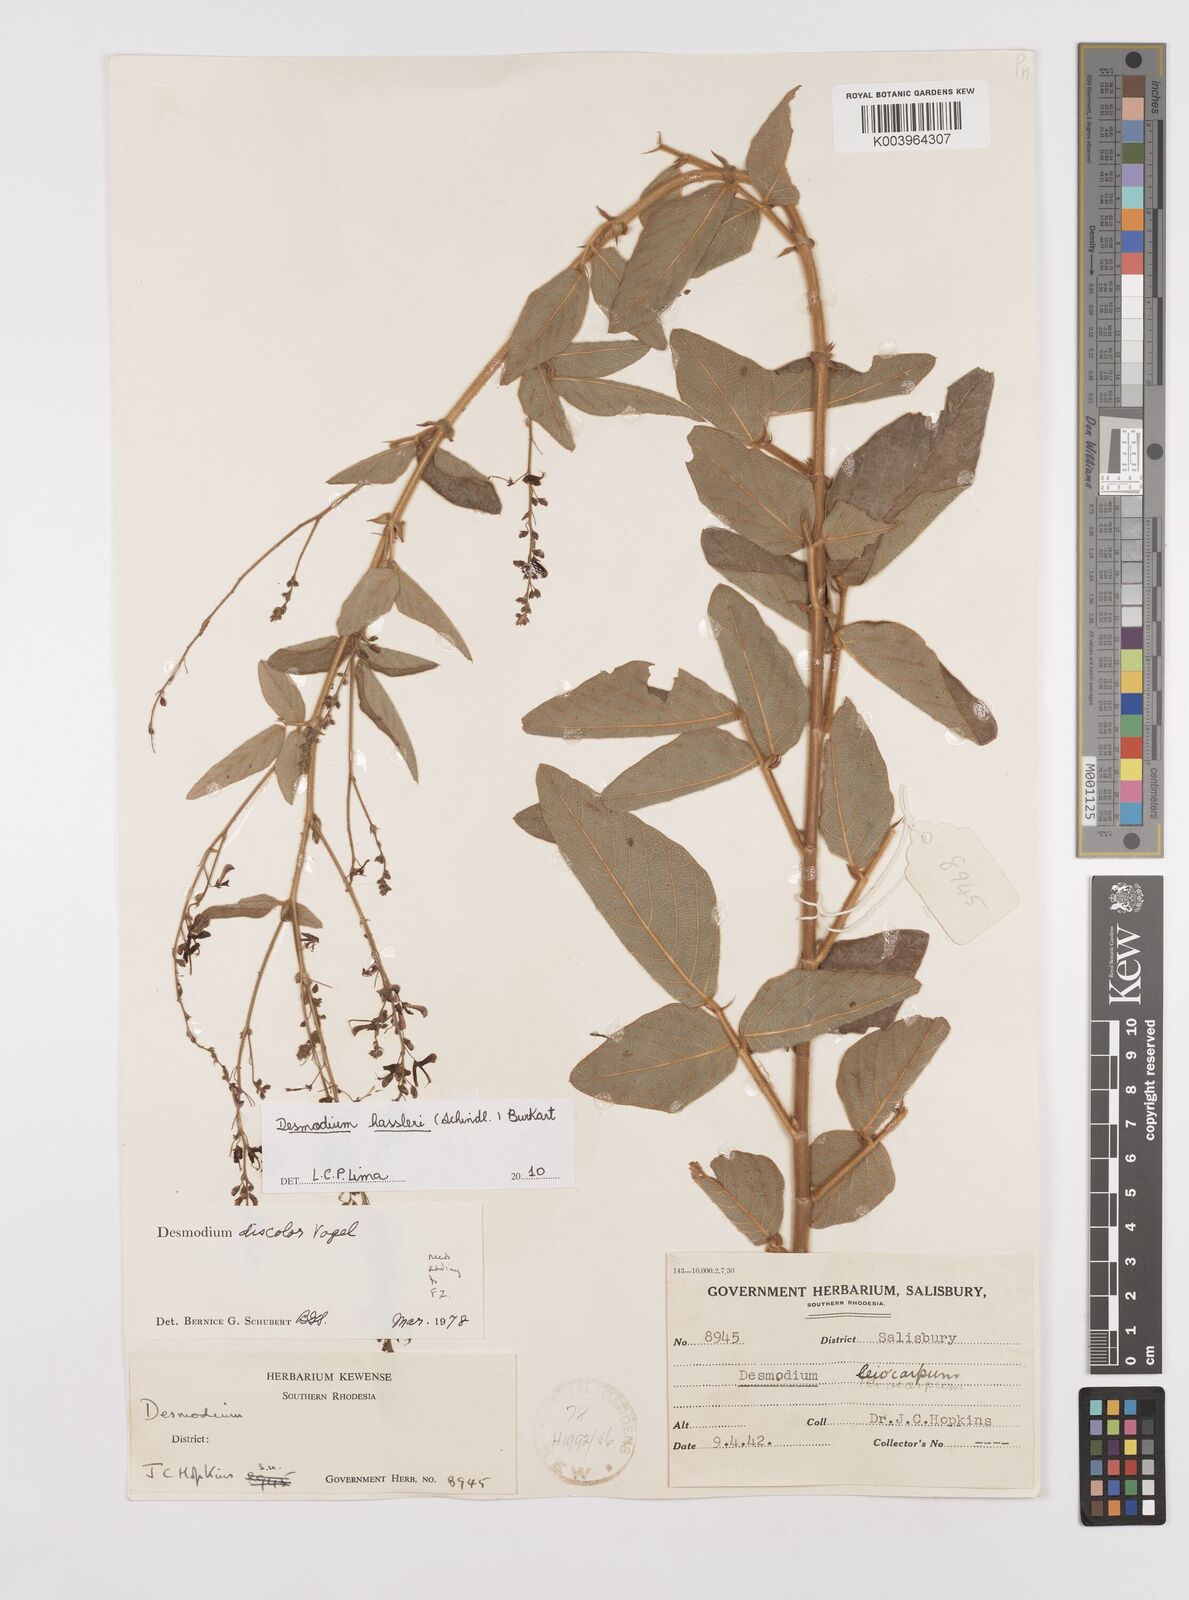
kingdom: Plantae
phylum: Tracheophyta
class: Magnoliopsida
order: Fabales
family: Fabaceae
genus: Desmodium
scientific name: Desmodium hassleri
